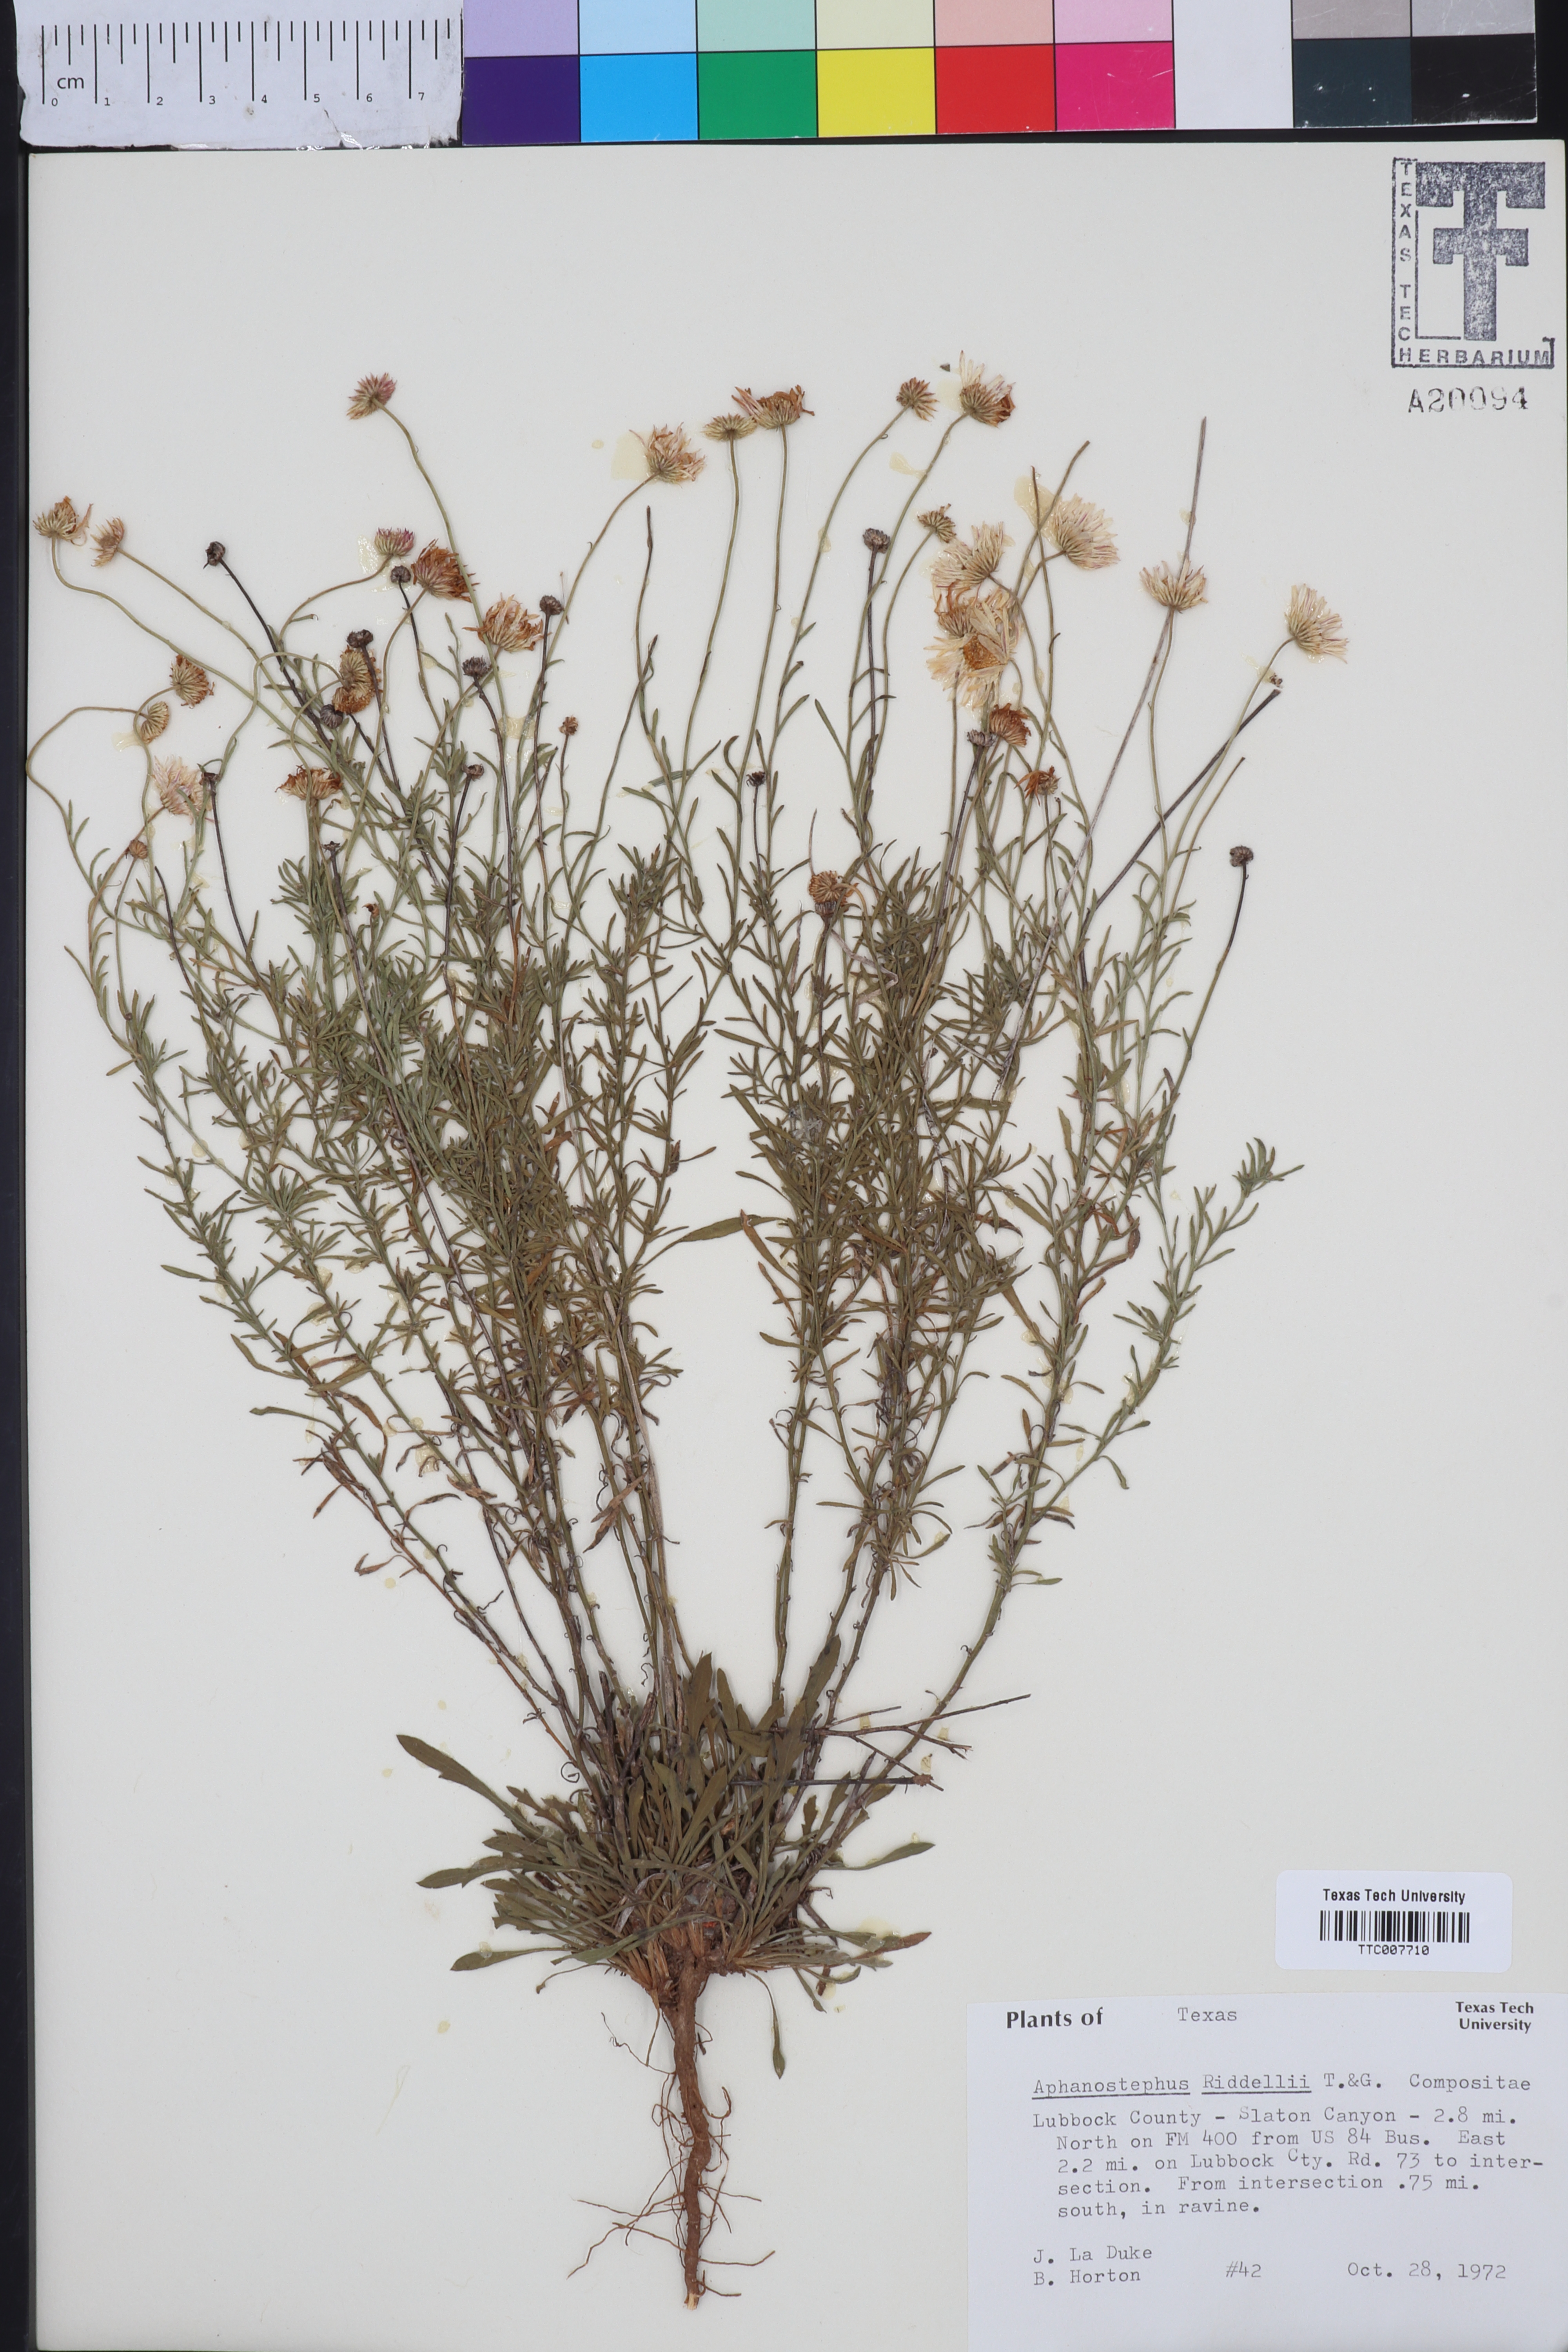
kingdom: Plantae
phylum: Tracheophyta
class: Magnoliopsida
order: Asterales
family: Asteraceae
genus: Aphanostephus
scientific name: Aphanostephus riddellii
